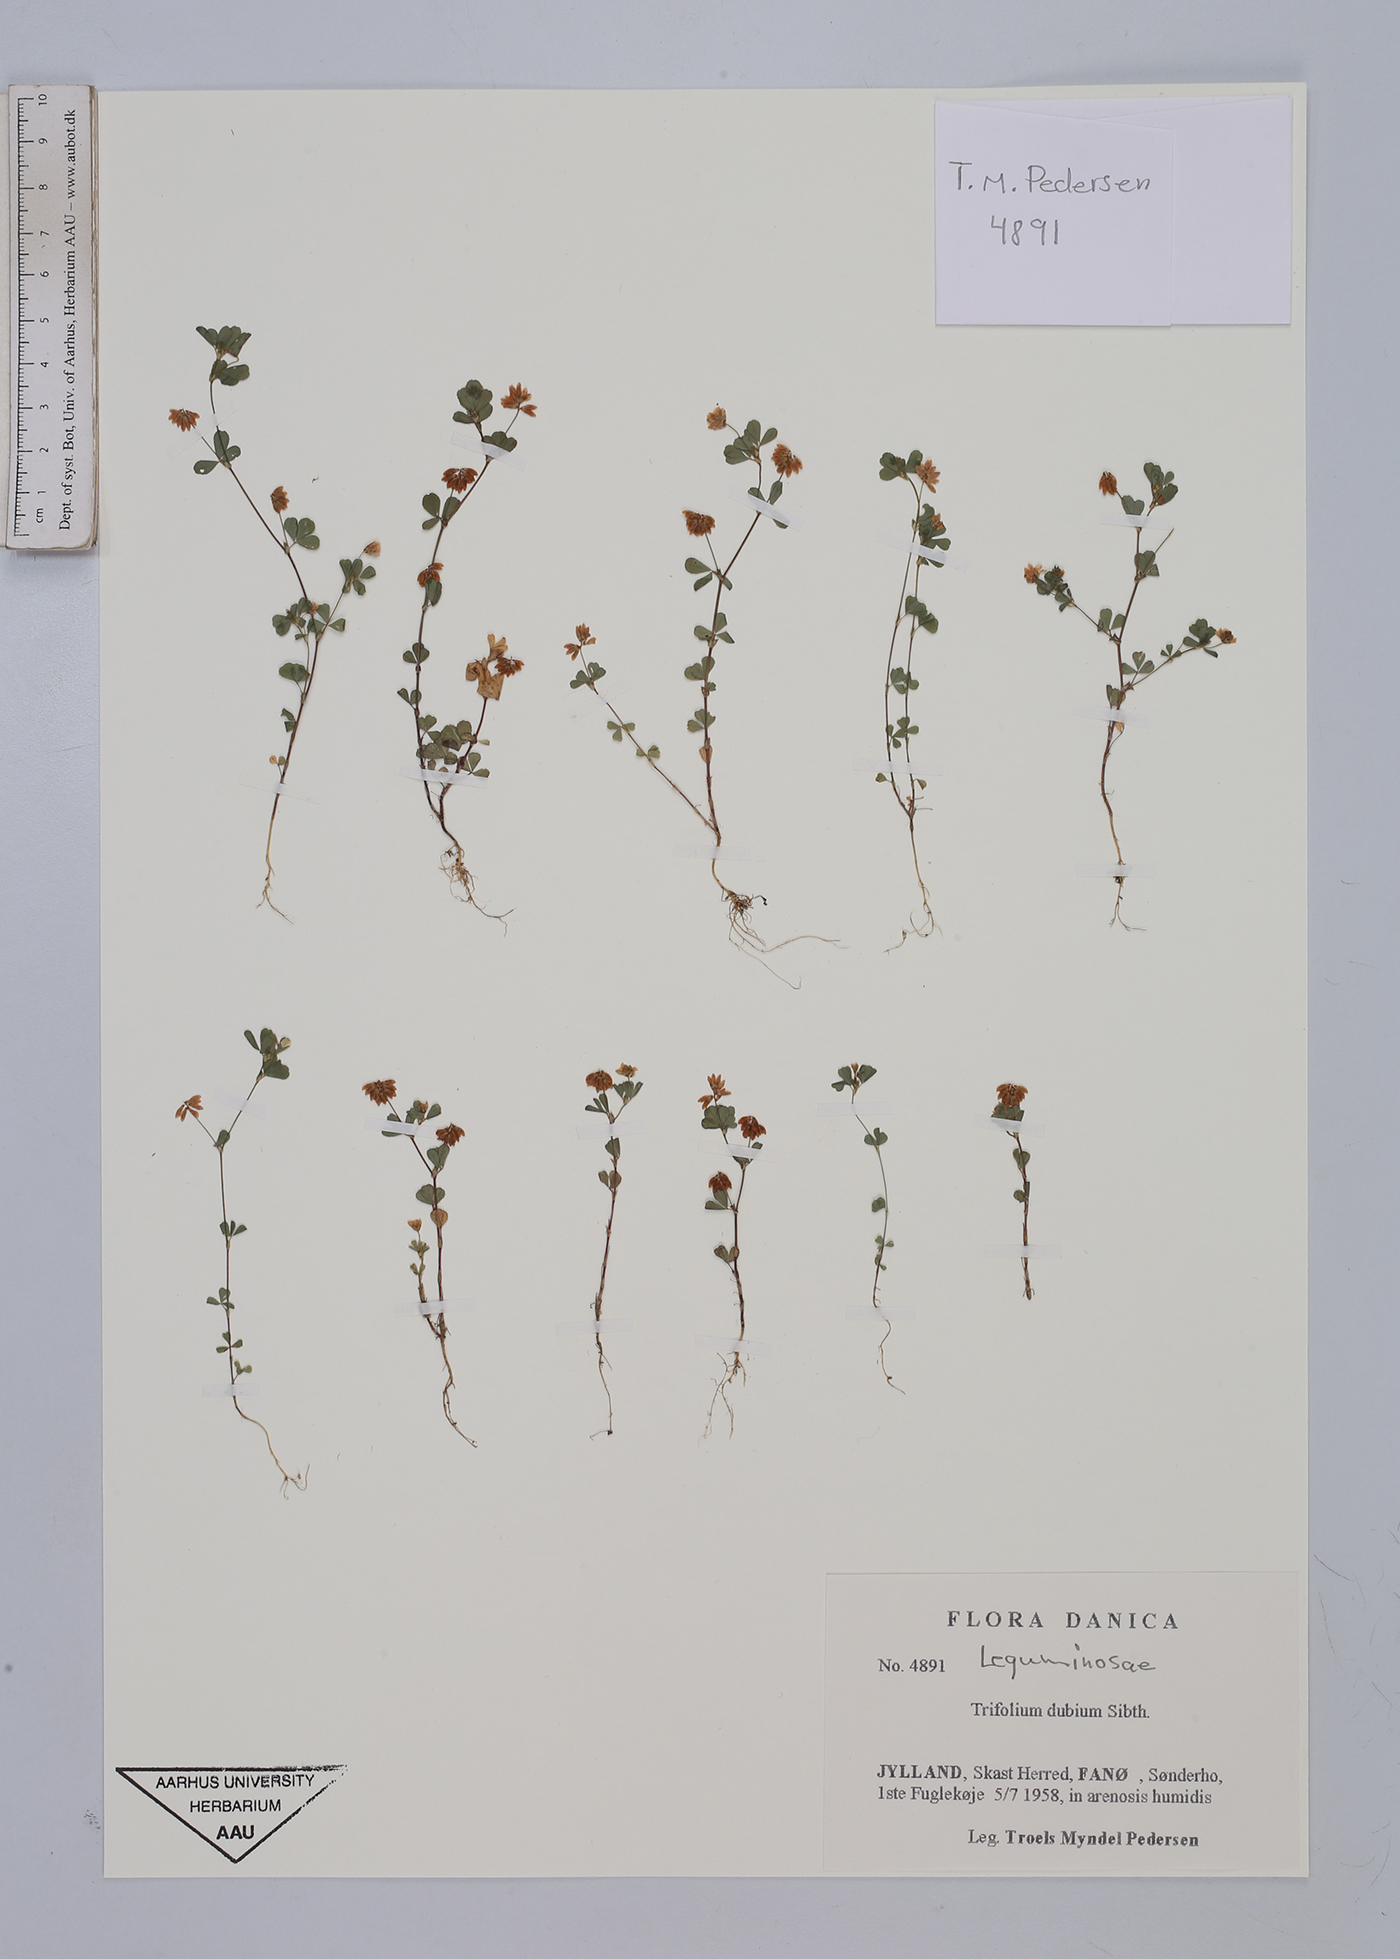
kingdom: Plantae
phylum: Tracheophyta
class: Magnoliopsida
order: Fabales
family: Fabaceae
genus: Trifolium
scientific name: Trifolium dubium
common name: Suckling clover
